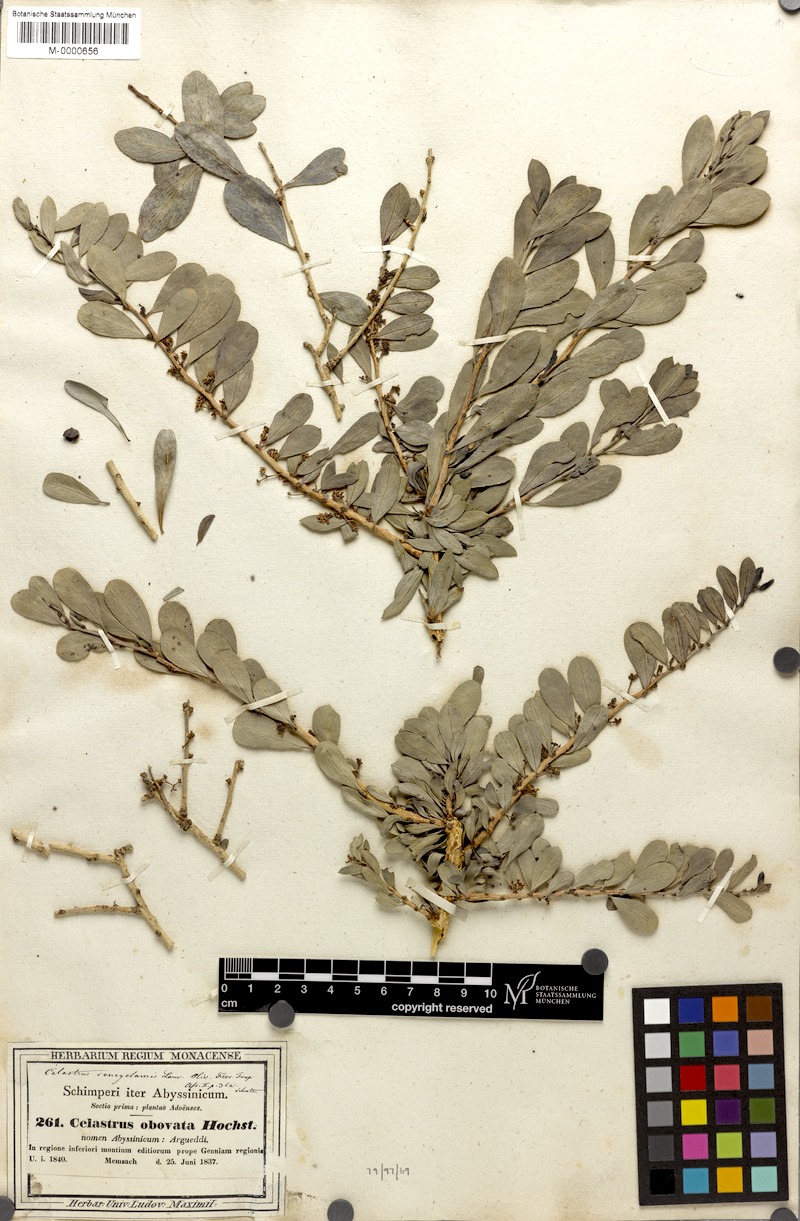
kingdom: Plantae
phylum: Tracheophyta
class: Magnoliopsida
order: Celastrales
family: Celastraceae
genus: Gymnosporia
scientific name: Gymnosporia senegalensis
